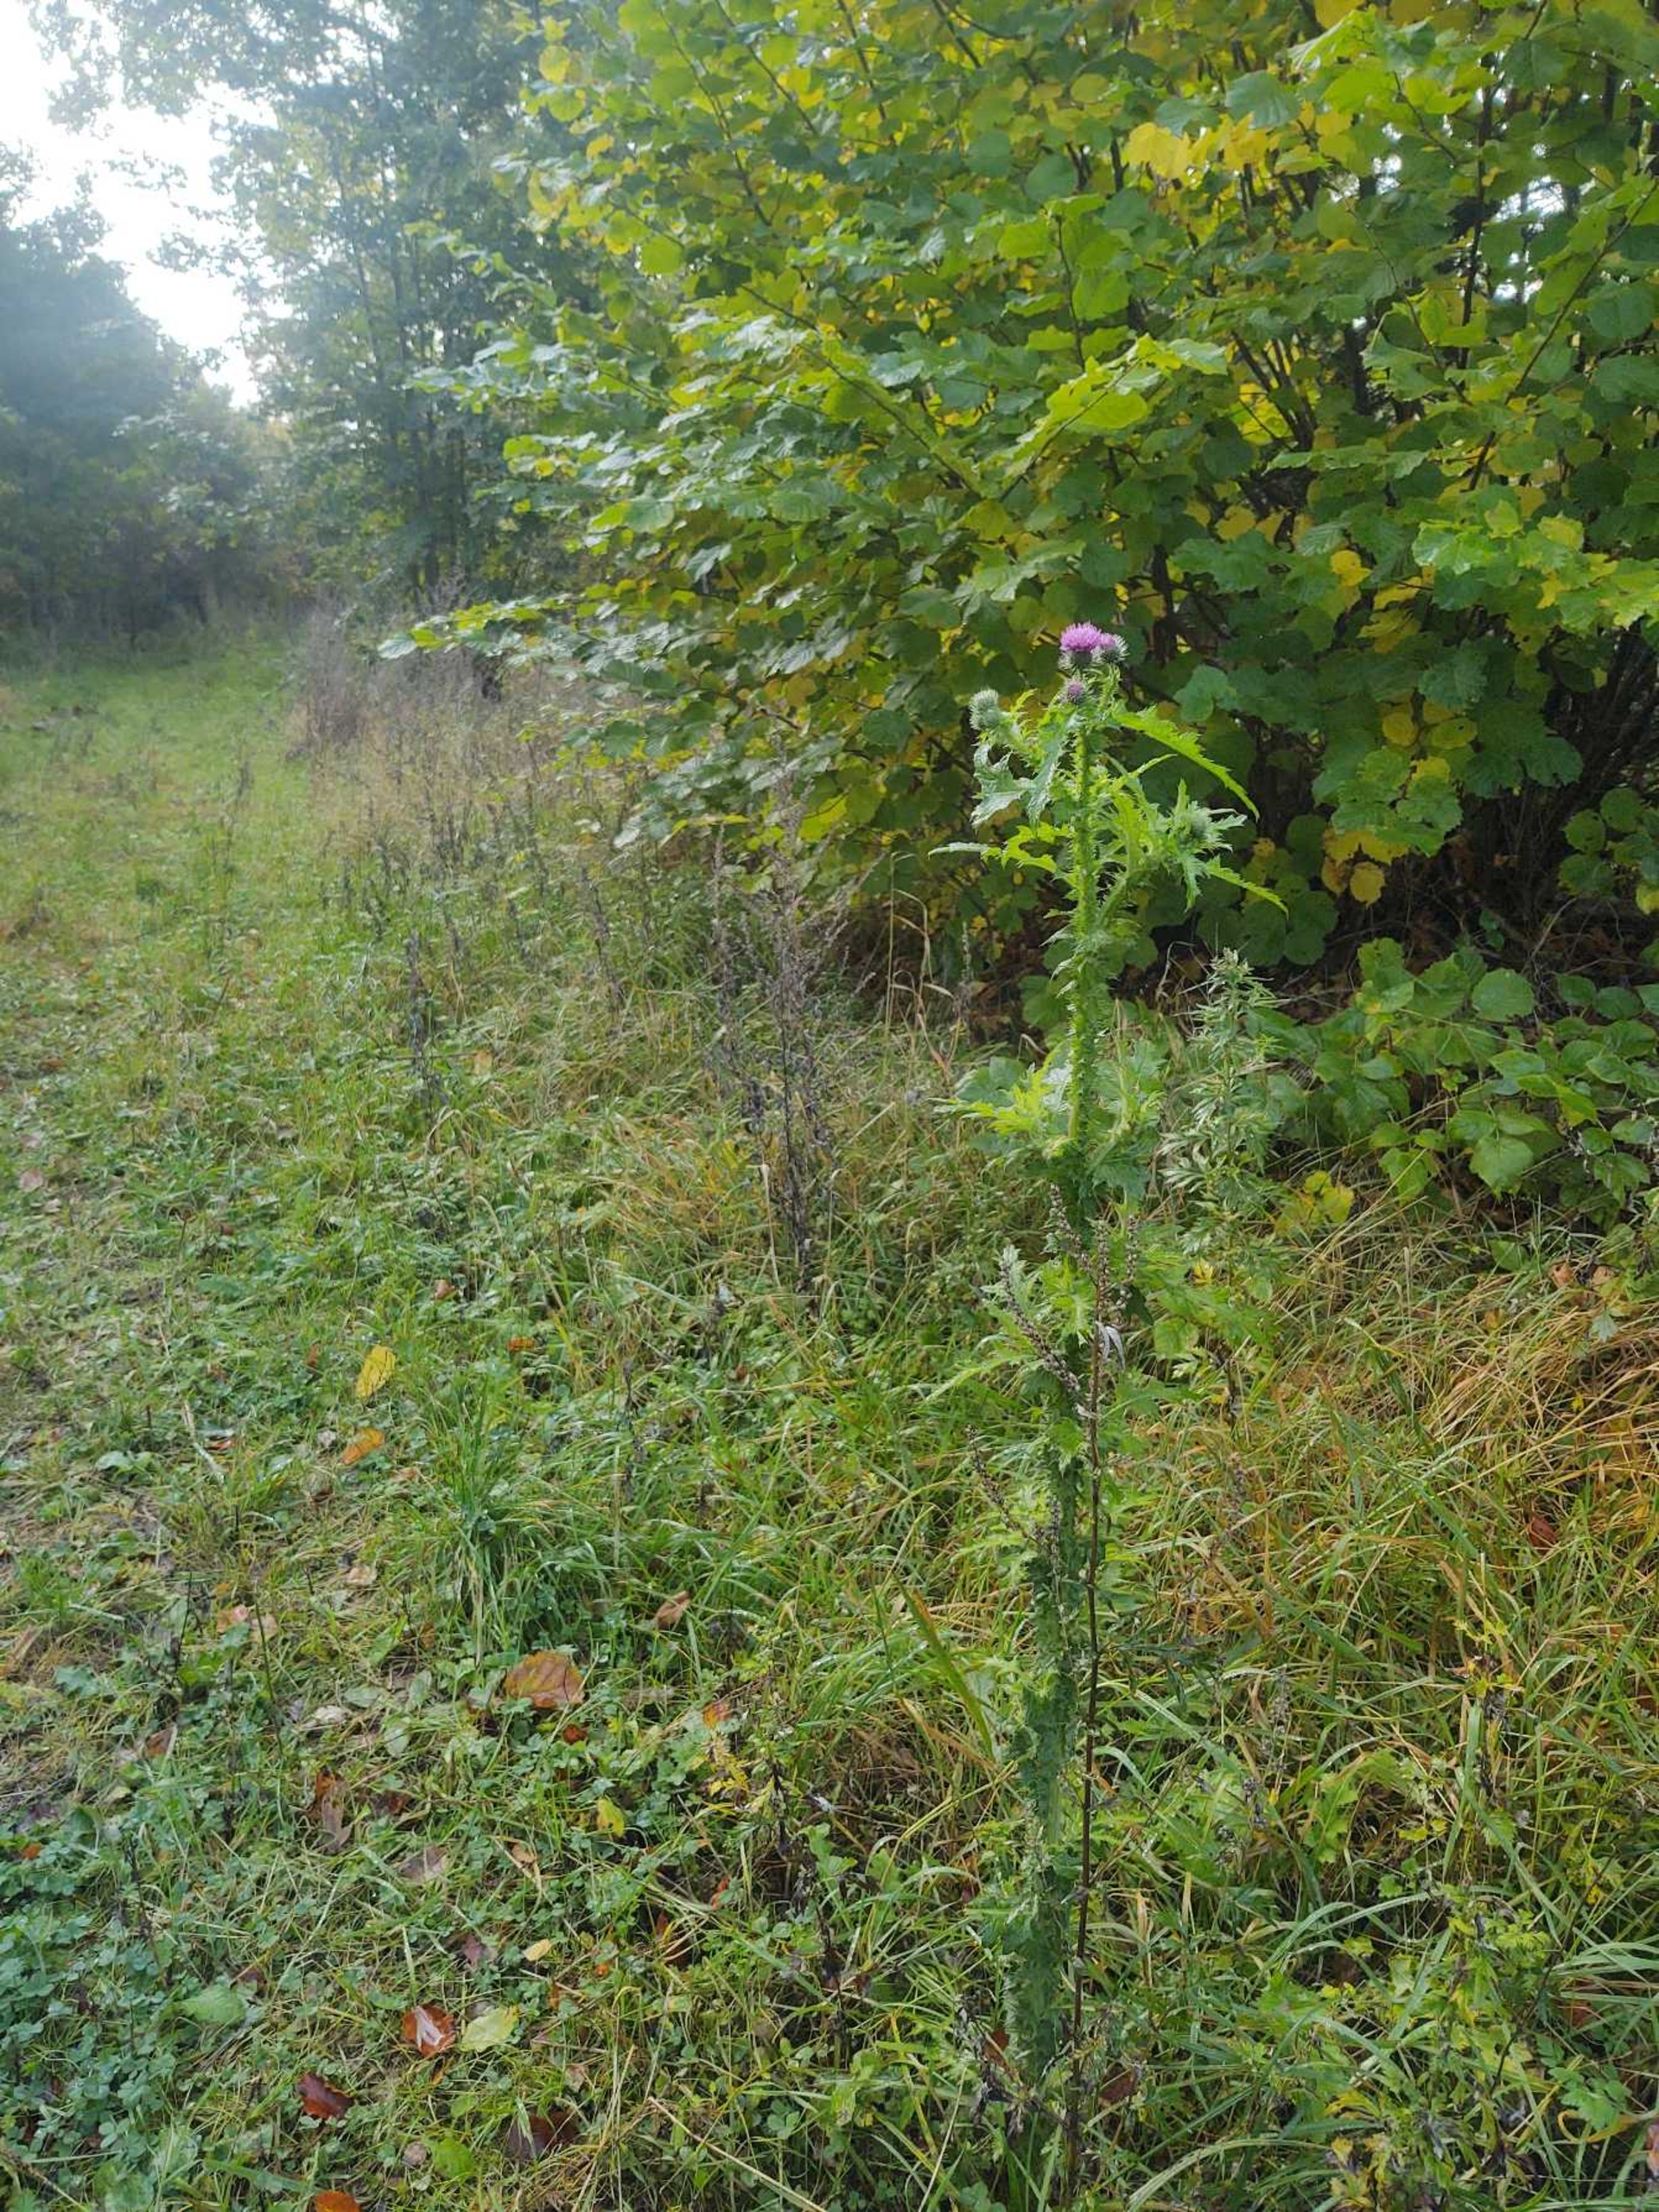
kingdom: Plantae
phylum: Tracheophyta
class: Magnoliopsida
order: Asterales
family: Asteraceae
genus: Carduus
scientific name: Carduus crispus
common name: Kruset tidsel
